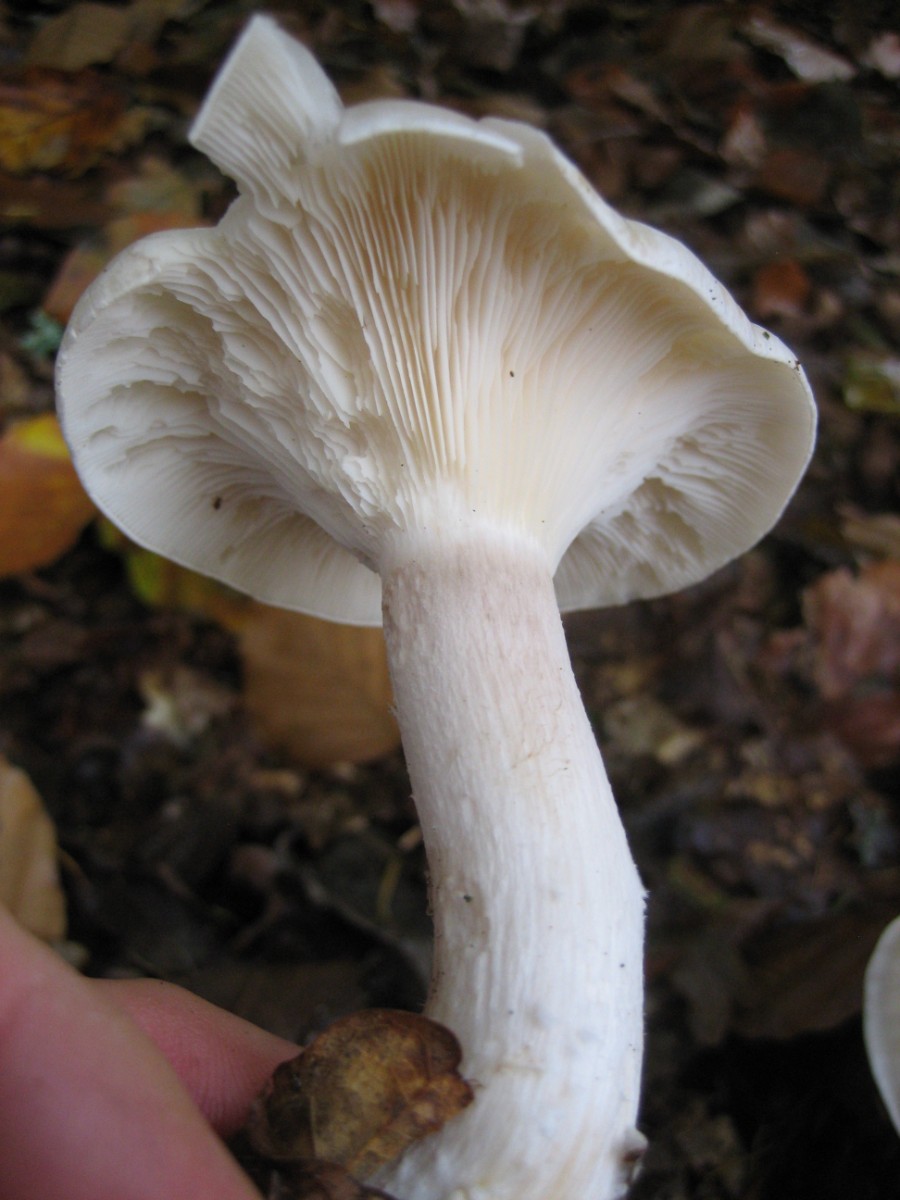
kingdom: Fungi
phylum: Basidiomycota
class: Agaricomycetes
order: Agaricales
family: Tricholomataceae
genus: Clitocybe
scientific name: Clitocybe nebularis
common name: tåge-tragthat
